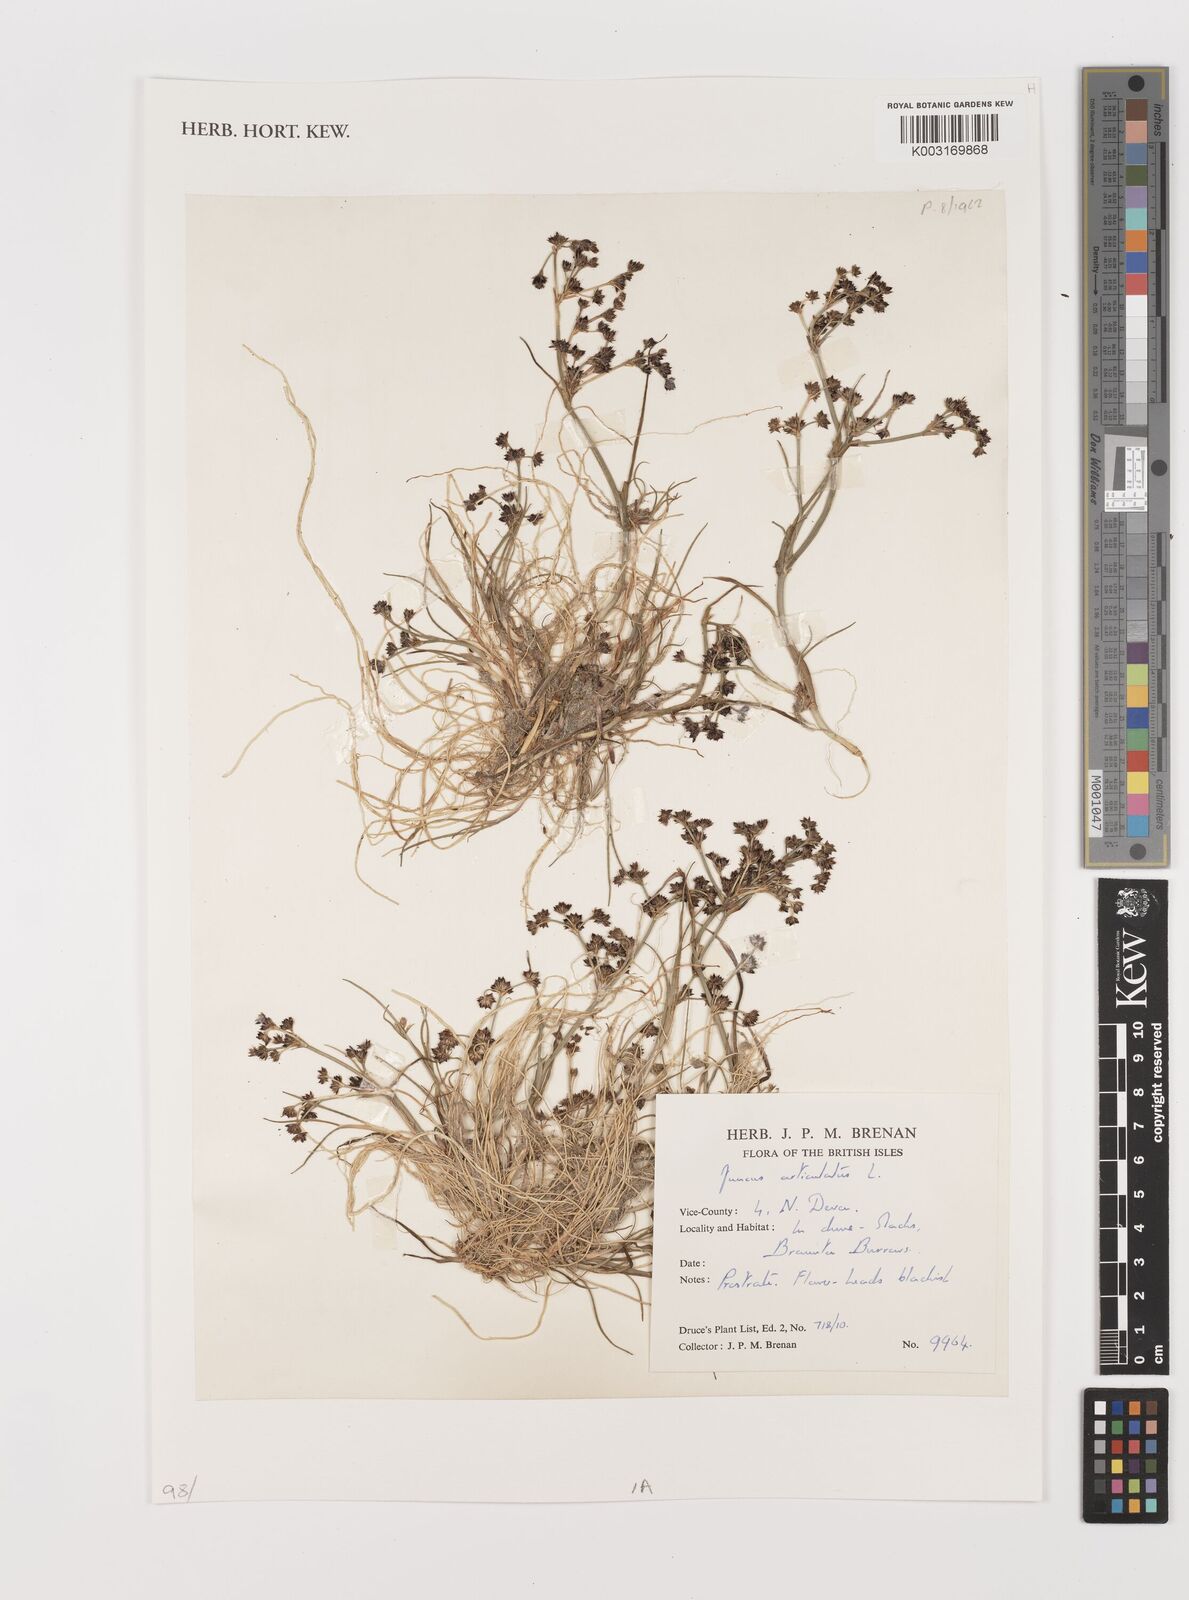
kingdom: Plantae
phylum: Tracheophyta
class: Liliopsida
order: Poales
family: Juncaceae
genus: Juncus
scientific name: Juncus articulatus
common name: Jointed rush
